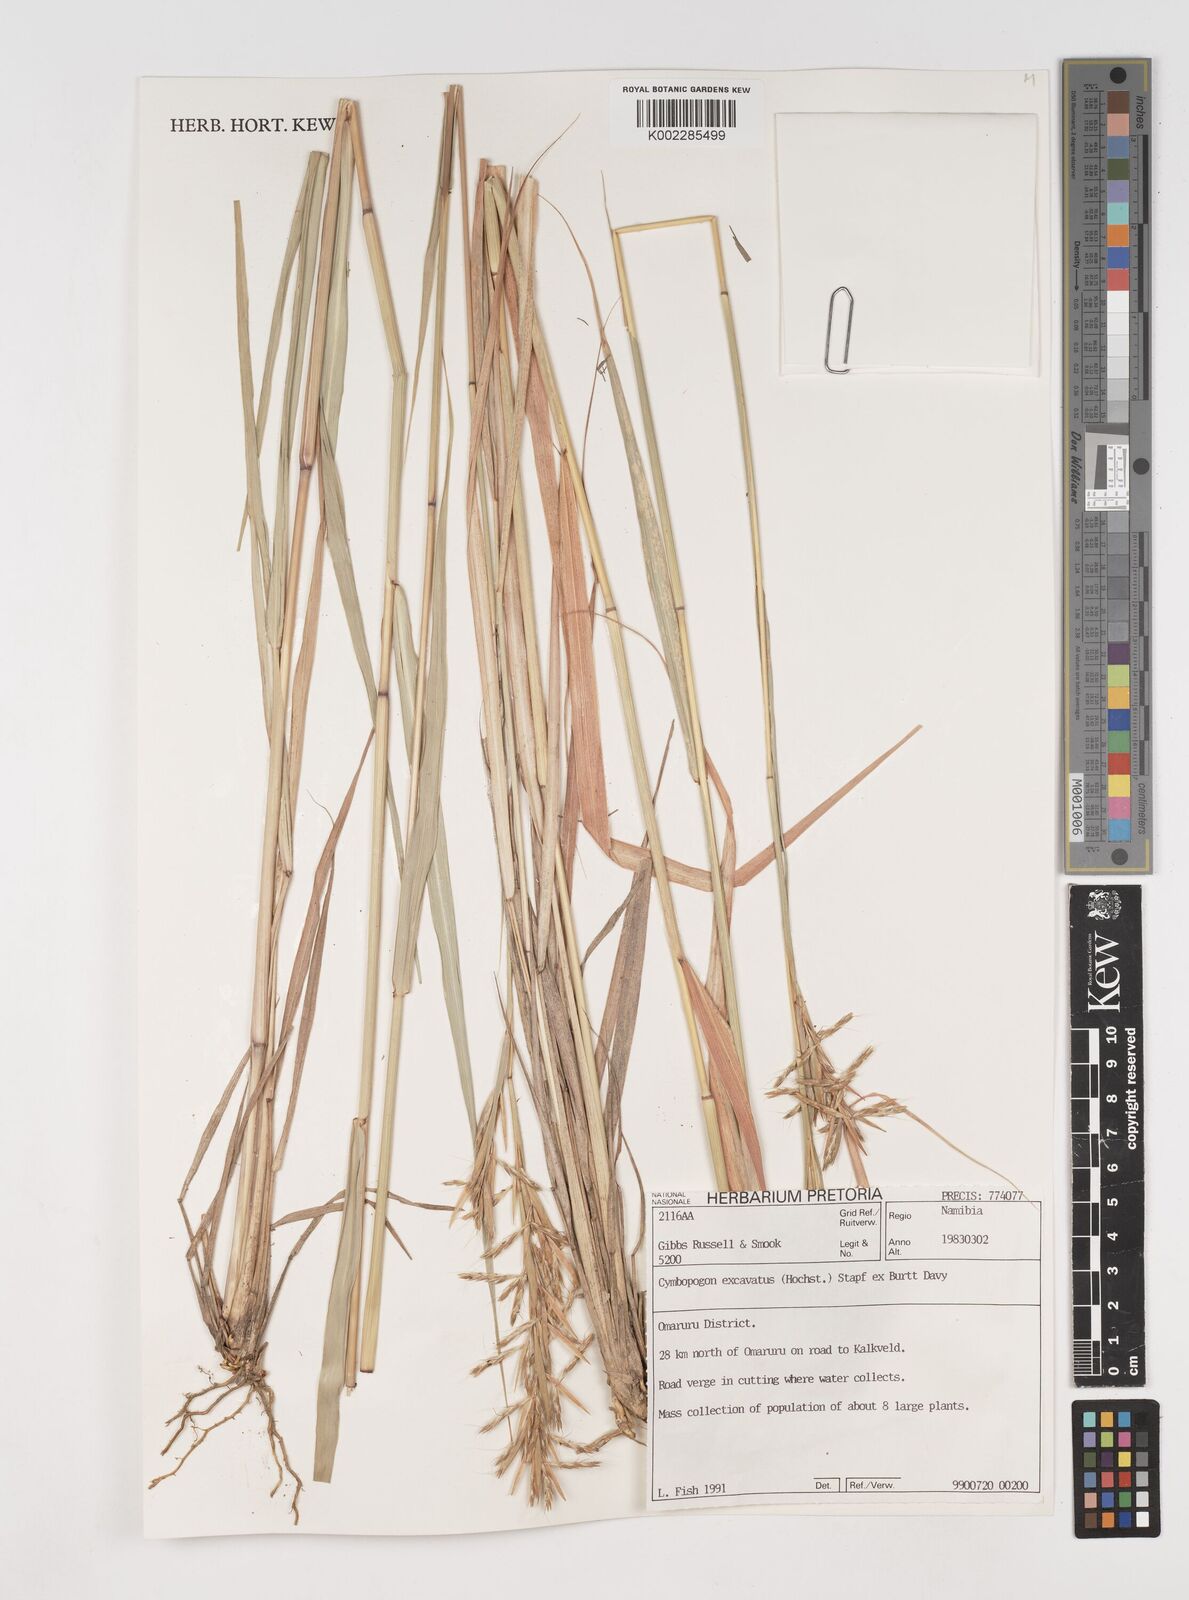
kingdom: Plantae
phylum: Tracheophyta
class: Liliopsida
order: Poales
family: Poaceae
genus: Cymbopogon
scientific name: Cymbopogon caesius
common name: Kachi grass
